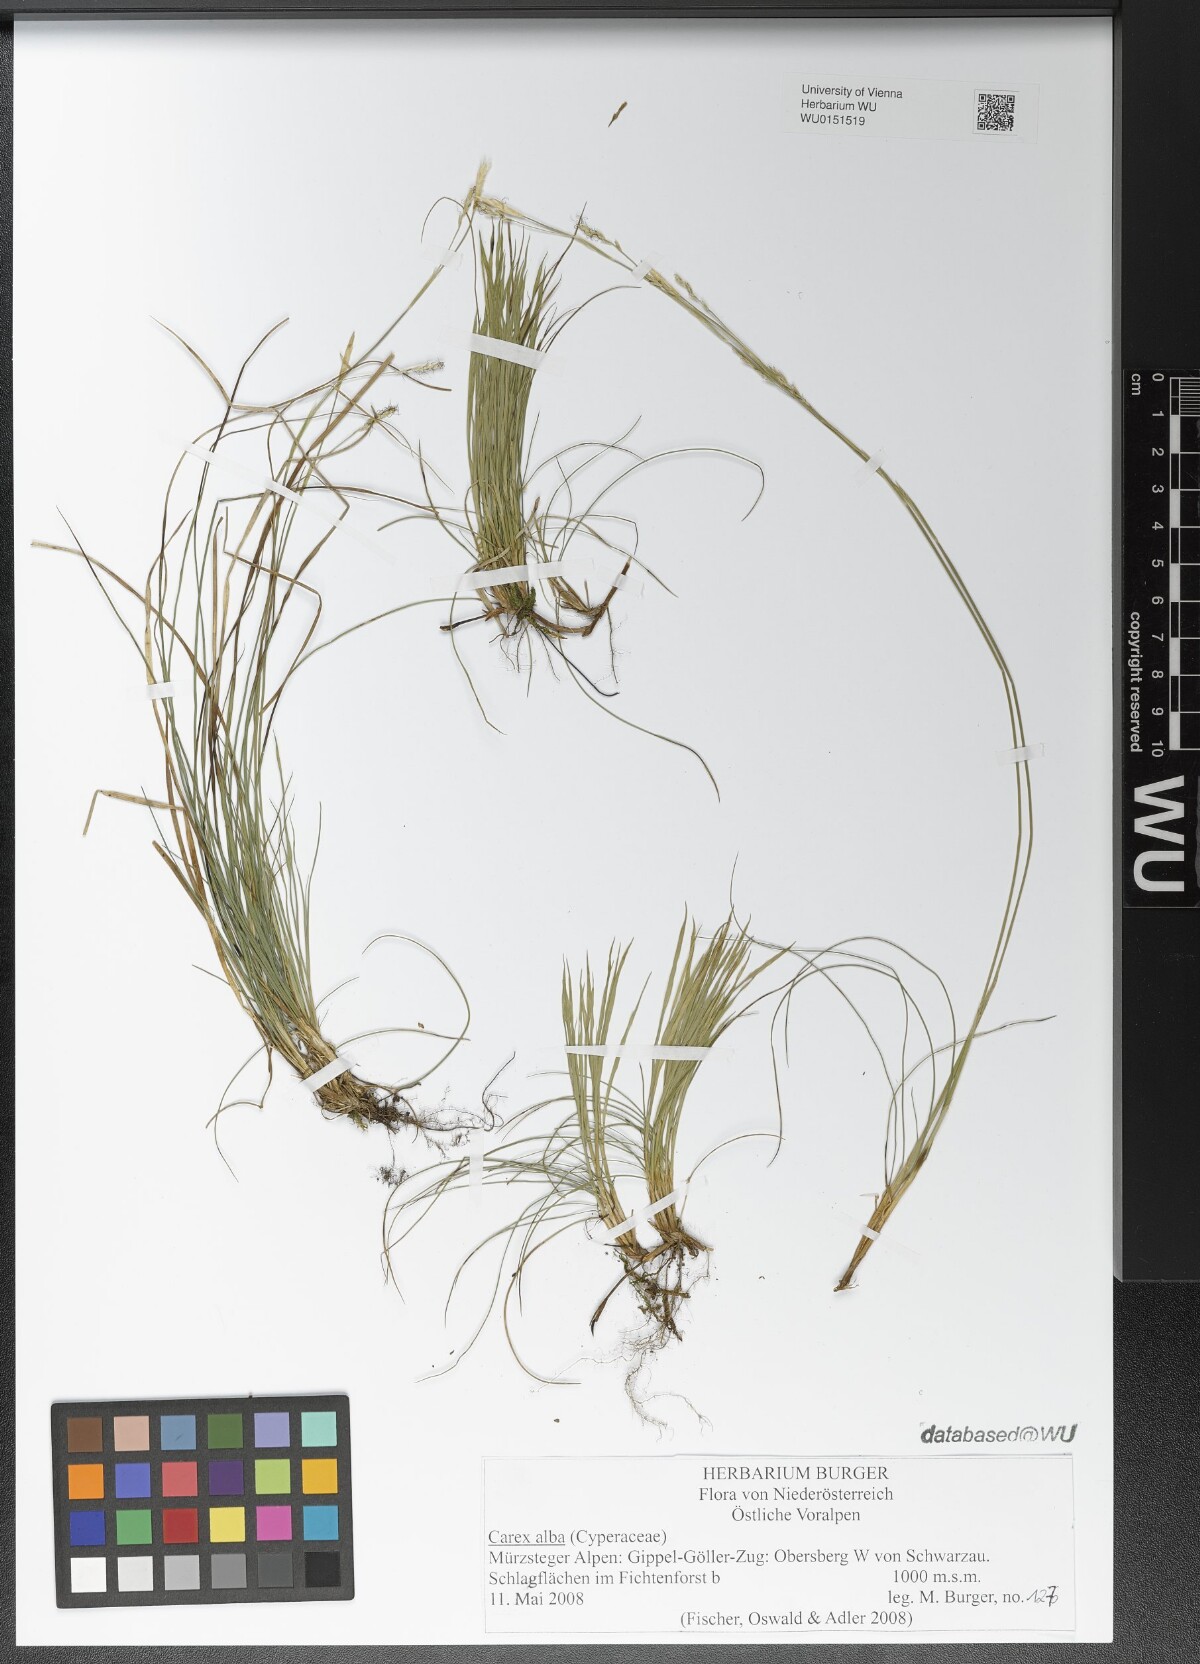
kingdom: Plantae
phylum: Tracheophyta
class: Liliopsida
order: Poales
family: Cyperaceae
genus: Carex
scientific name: Carex alba
